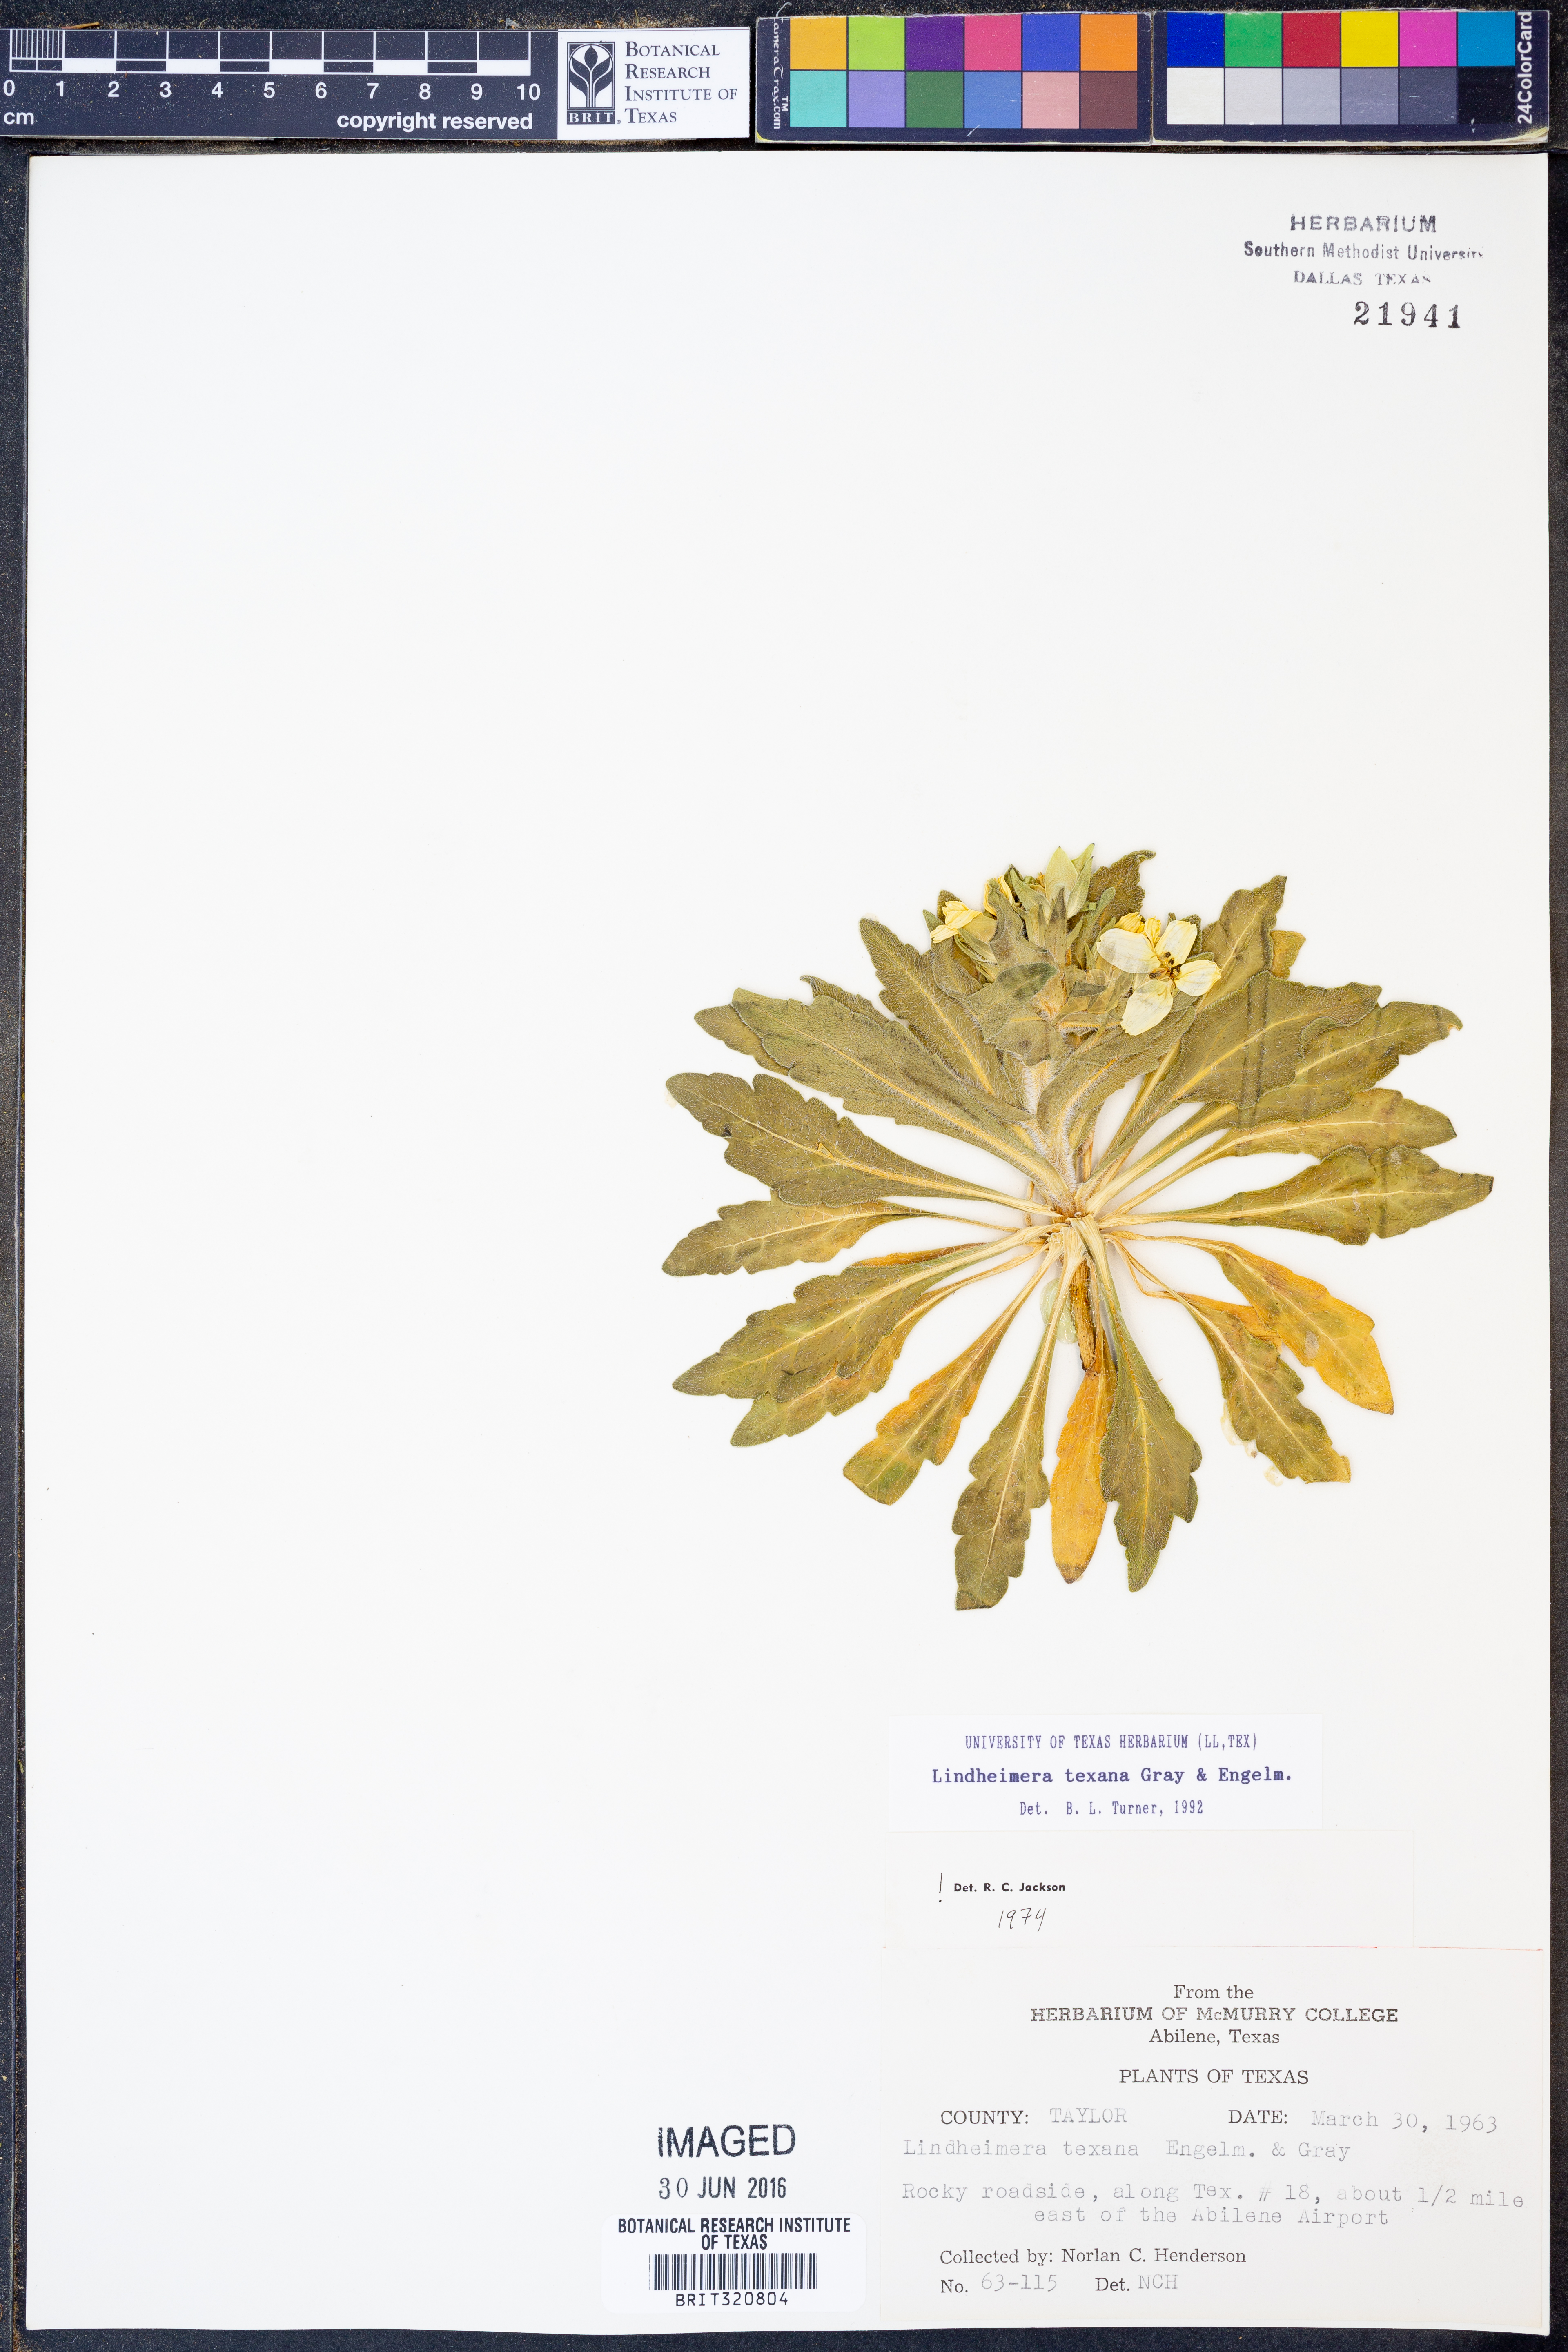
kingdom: Plantae
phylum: Tracheophyta
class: Magnoliopsida
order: Asterales
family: Asteraceae
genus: Lindheimera
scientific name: Lindheimera texana
